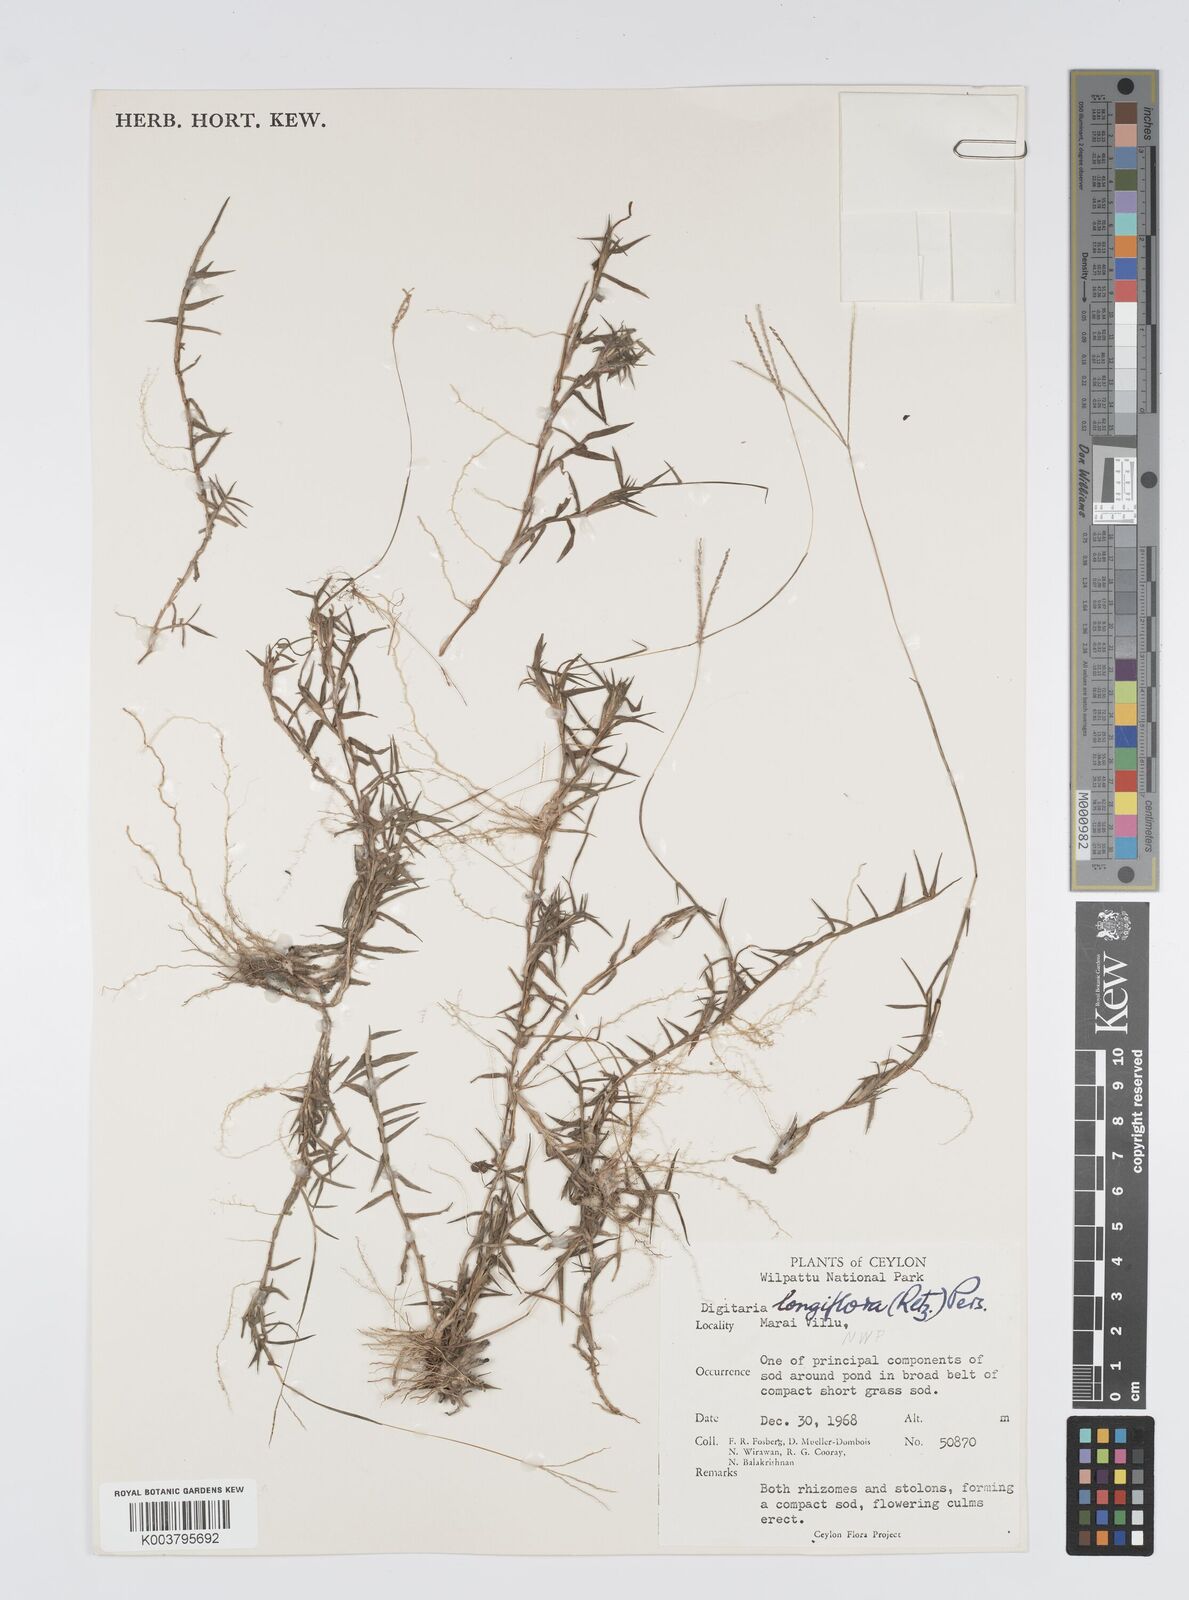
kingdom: Plantae
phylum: Tracheophyta
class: Liliopsida
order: Poales
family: Poaceae
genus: Digitaria
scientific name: Digitaria longiflora
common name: Wire crabgrass
